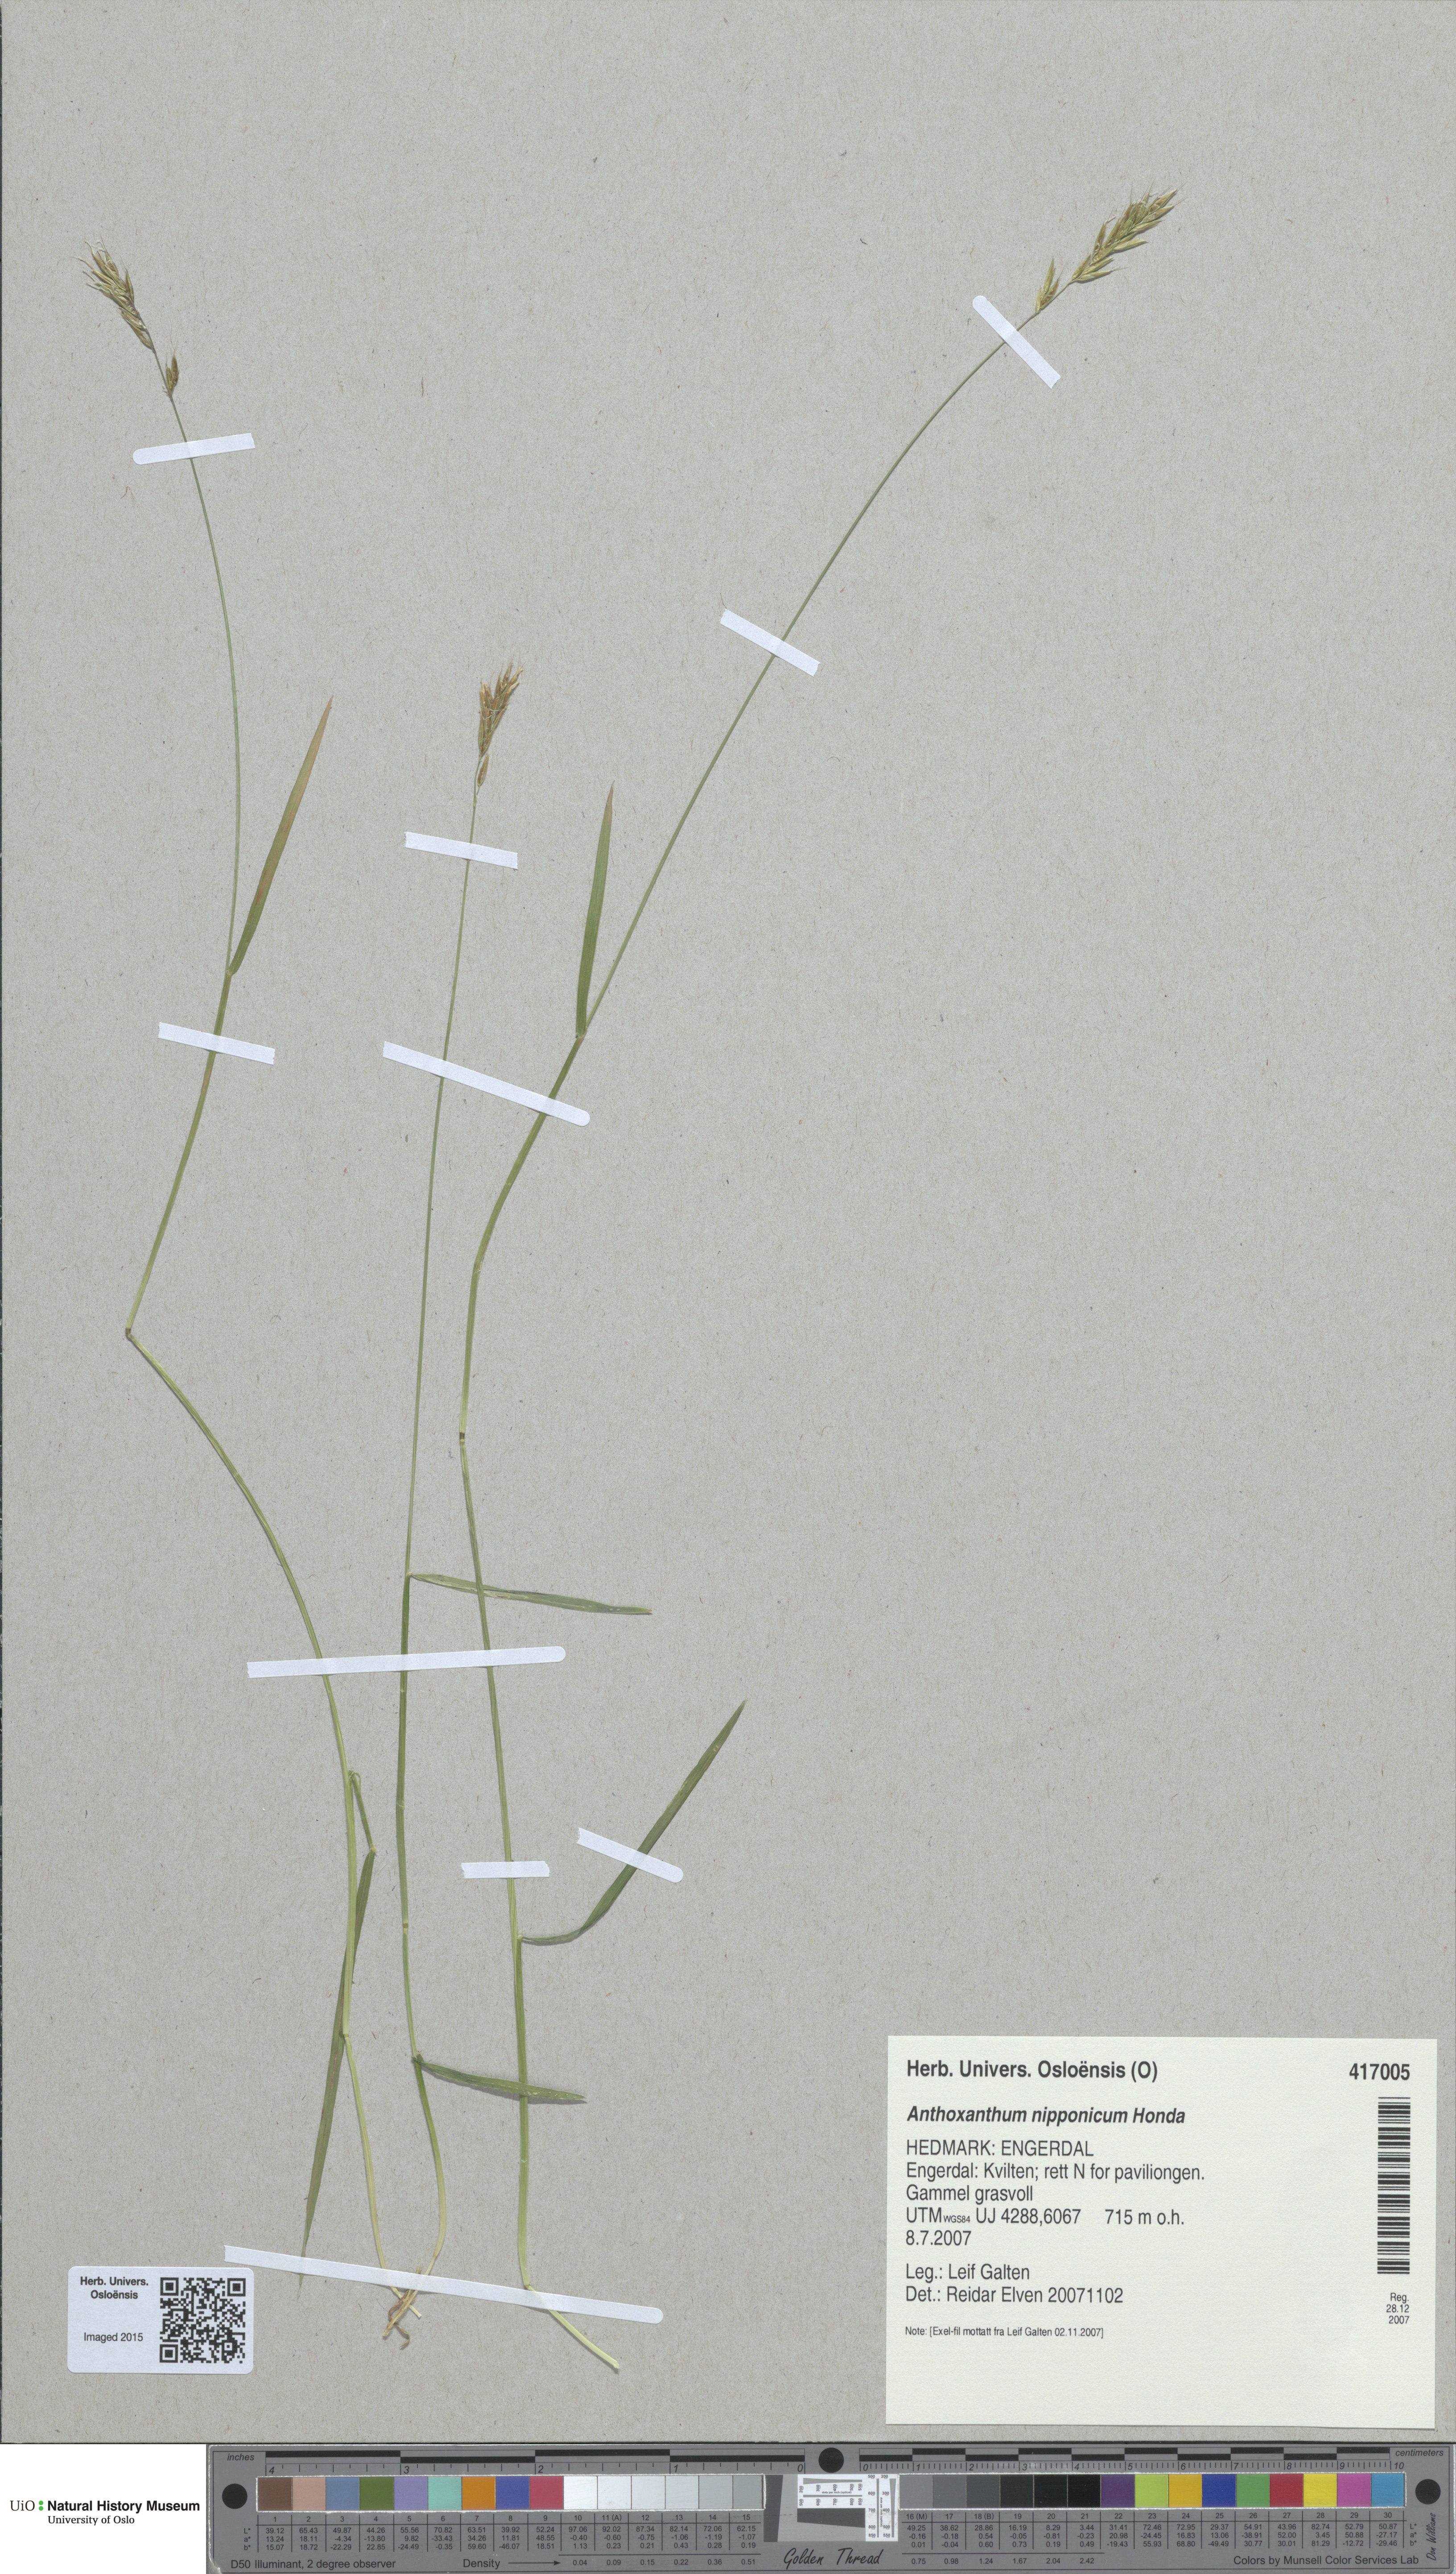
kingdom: Plantae
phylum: Tracheophyta
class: Liliopsida
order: Poales
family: Poaceae
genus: Anthoxanthum
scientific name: Anthoxanthum nipponicum
